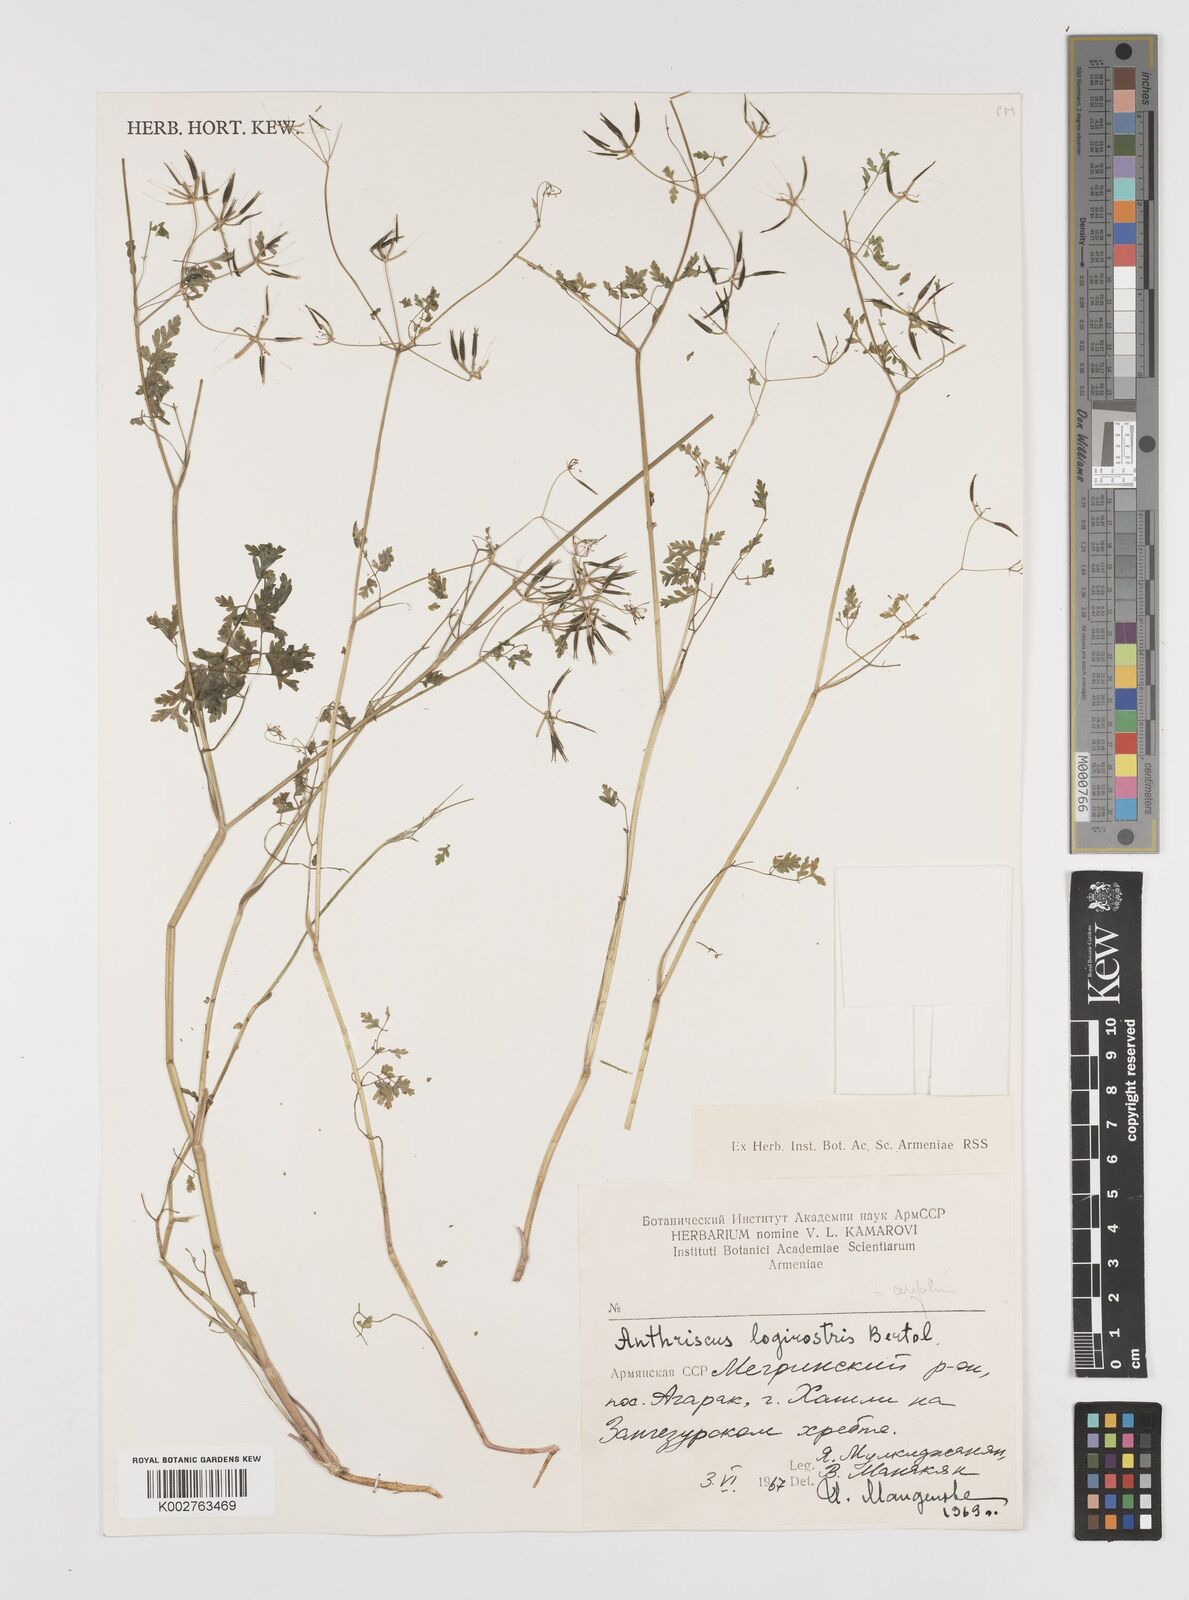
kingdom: Plantae
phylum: Tracheophyta
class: Magnoliopsida
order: Apiales
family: Apiaceae
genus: Anthriscus
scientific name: Anthriscus cerefolium
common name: Garden chervil
